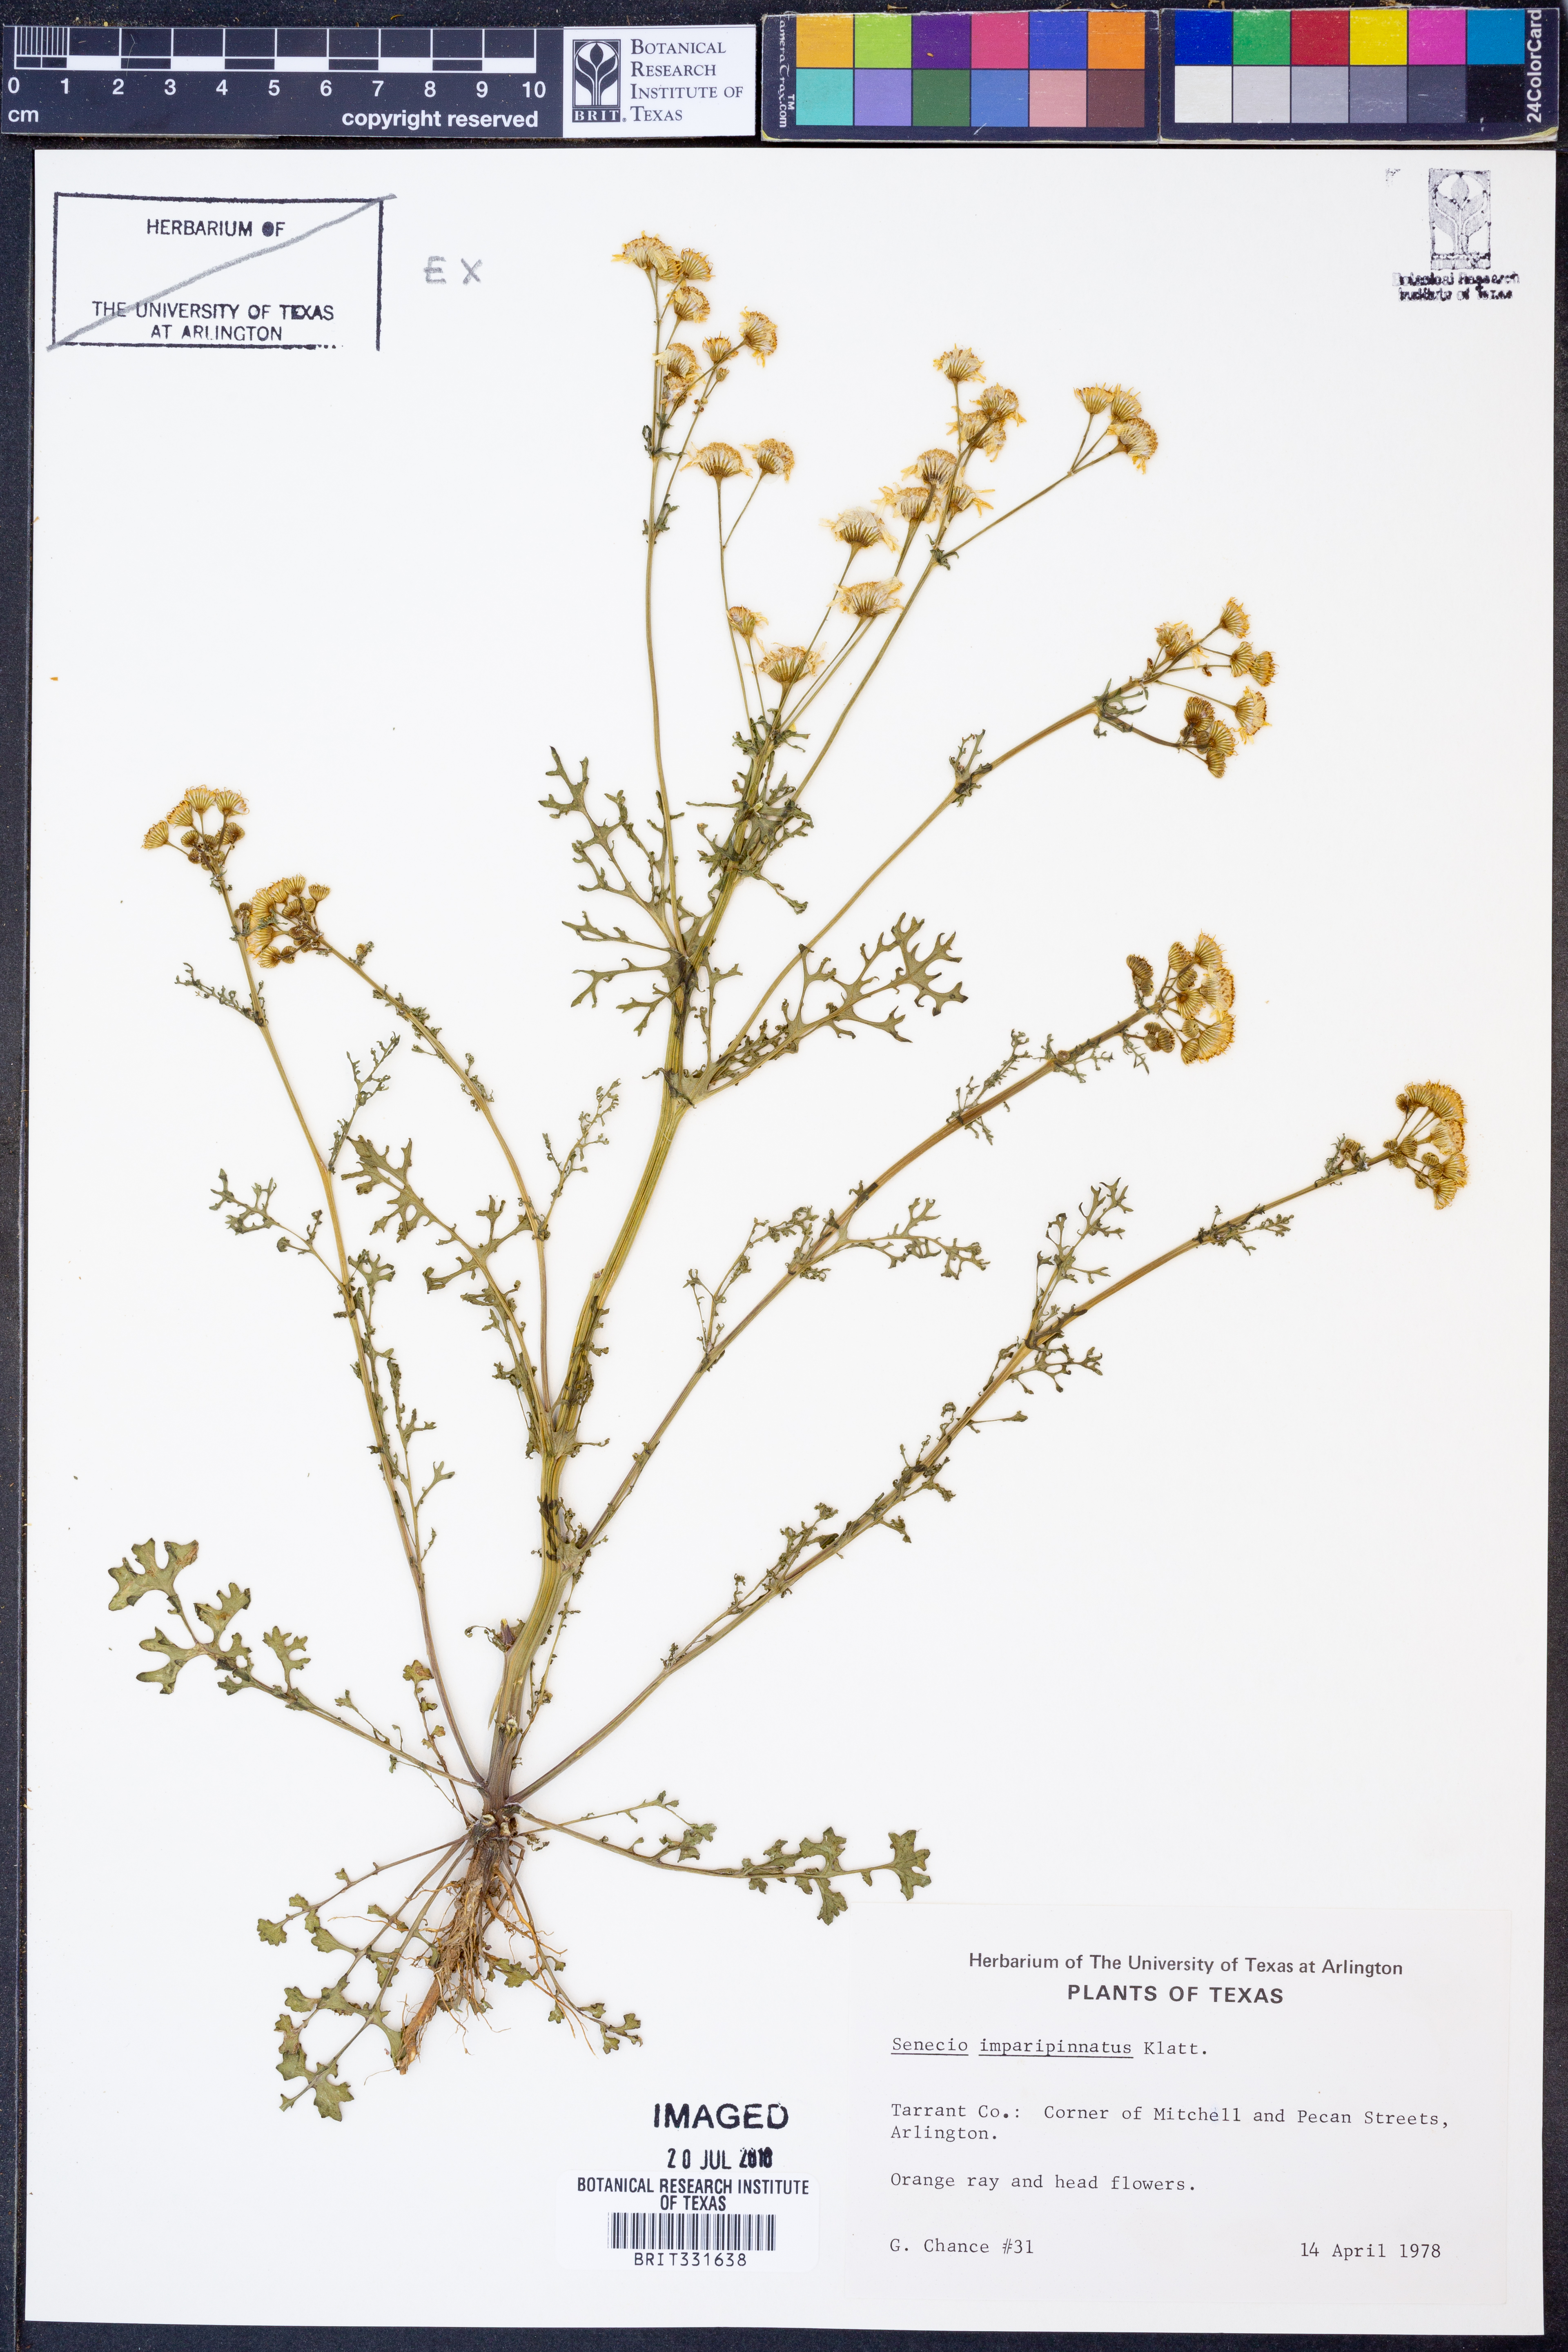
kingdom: Plantae
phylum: Tracheophyta
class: Magnoliopsida
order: Asterales
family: Asteraceae
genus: Packera
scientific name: Packera tampicana
